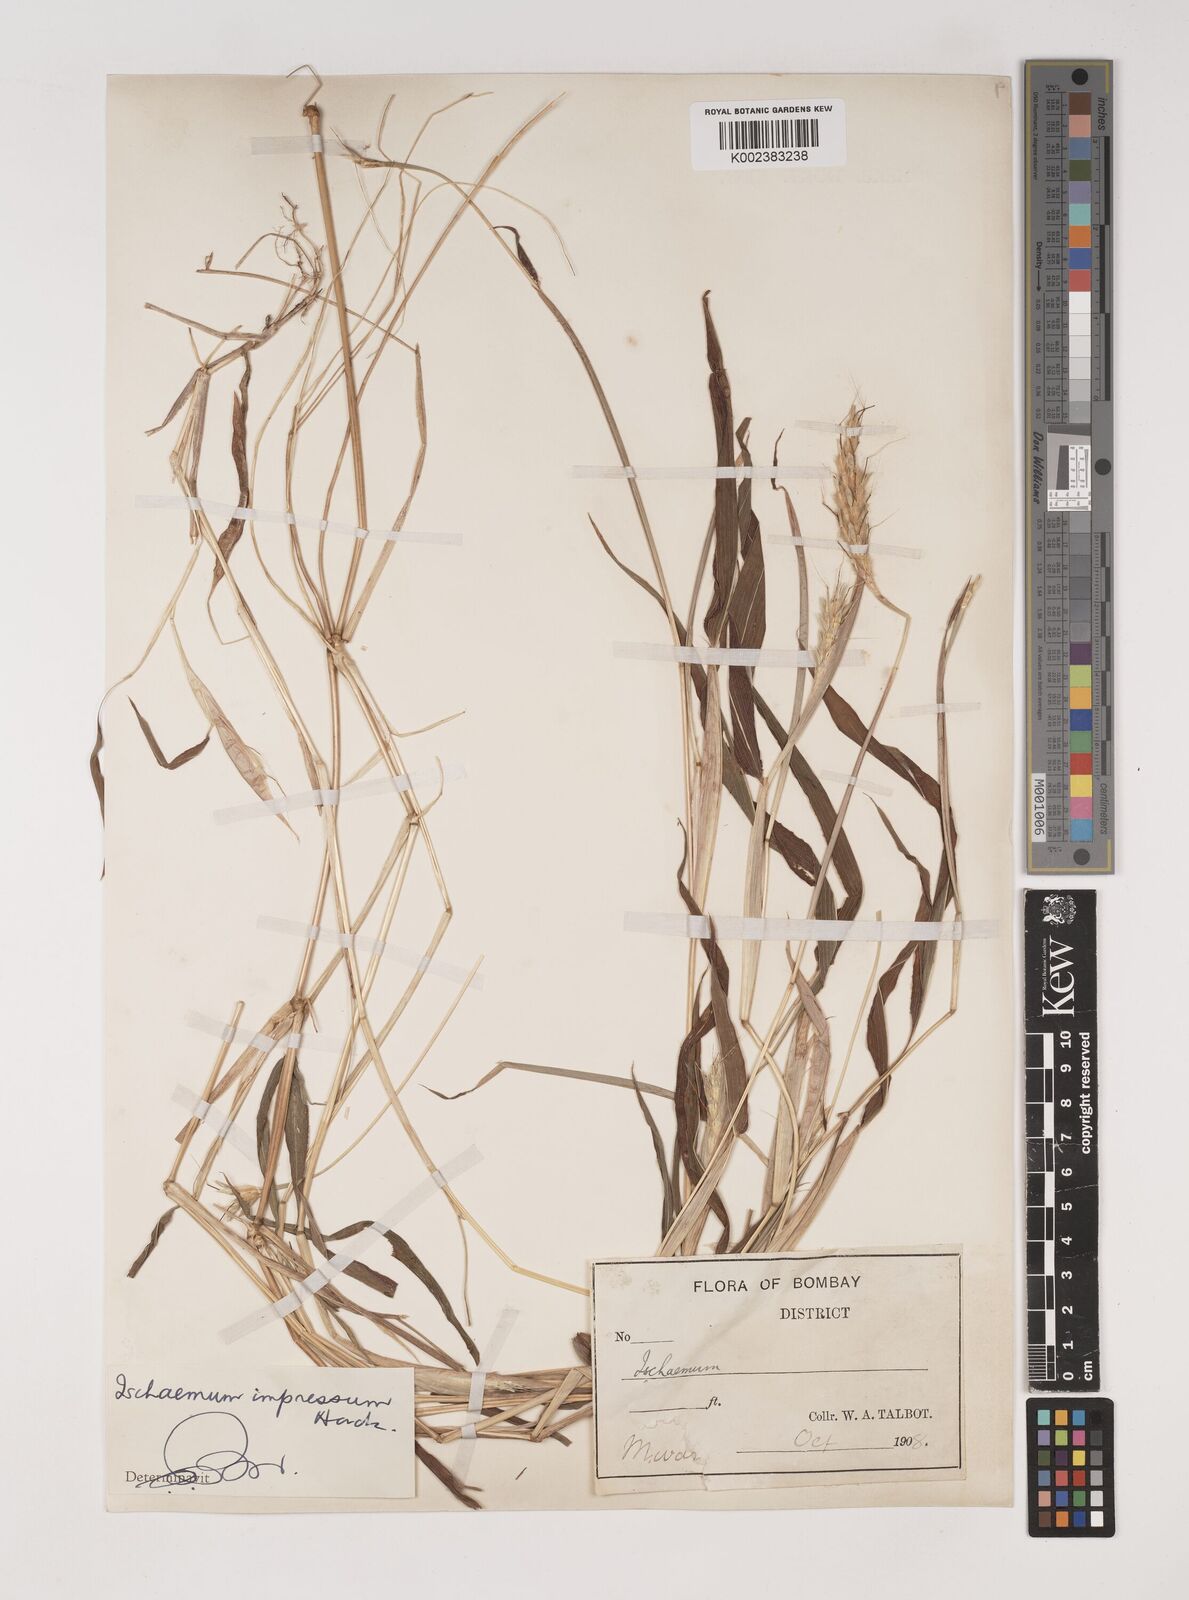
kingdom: Plantae
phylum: Tracheophyta
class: Liliopsida
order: Poales
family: Poaceae
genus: Ischaemum
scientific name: Ischaemum impressum
